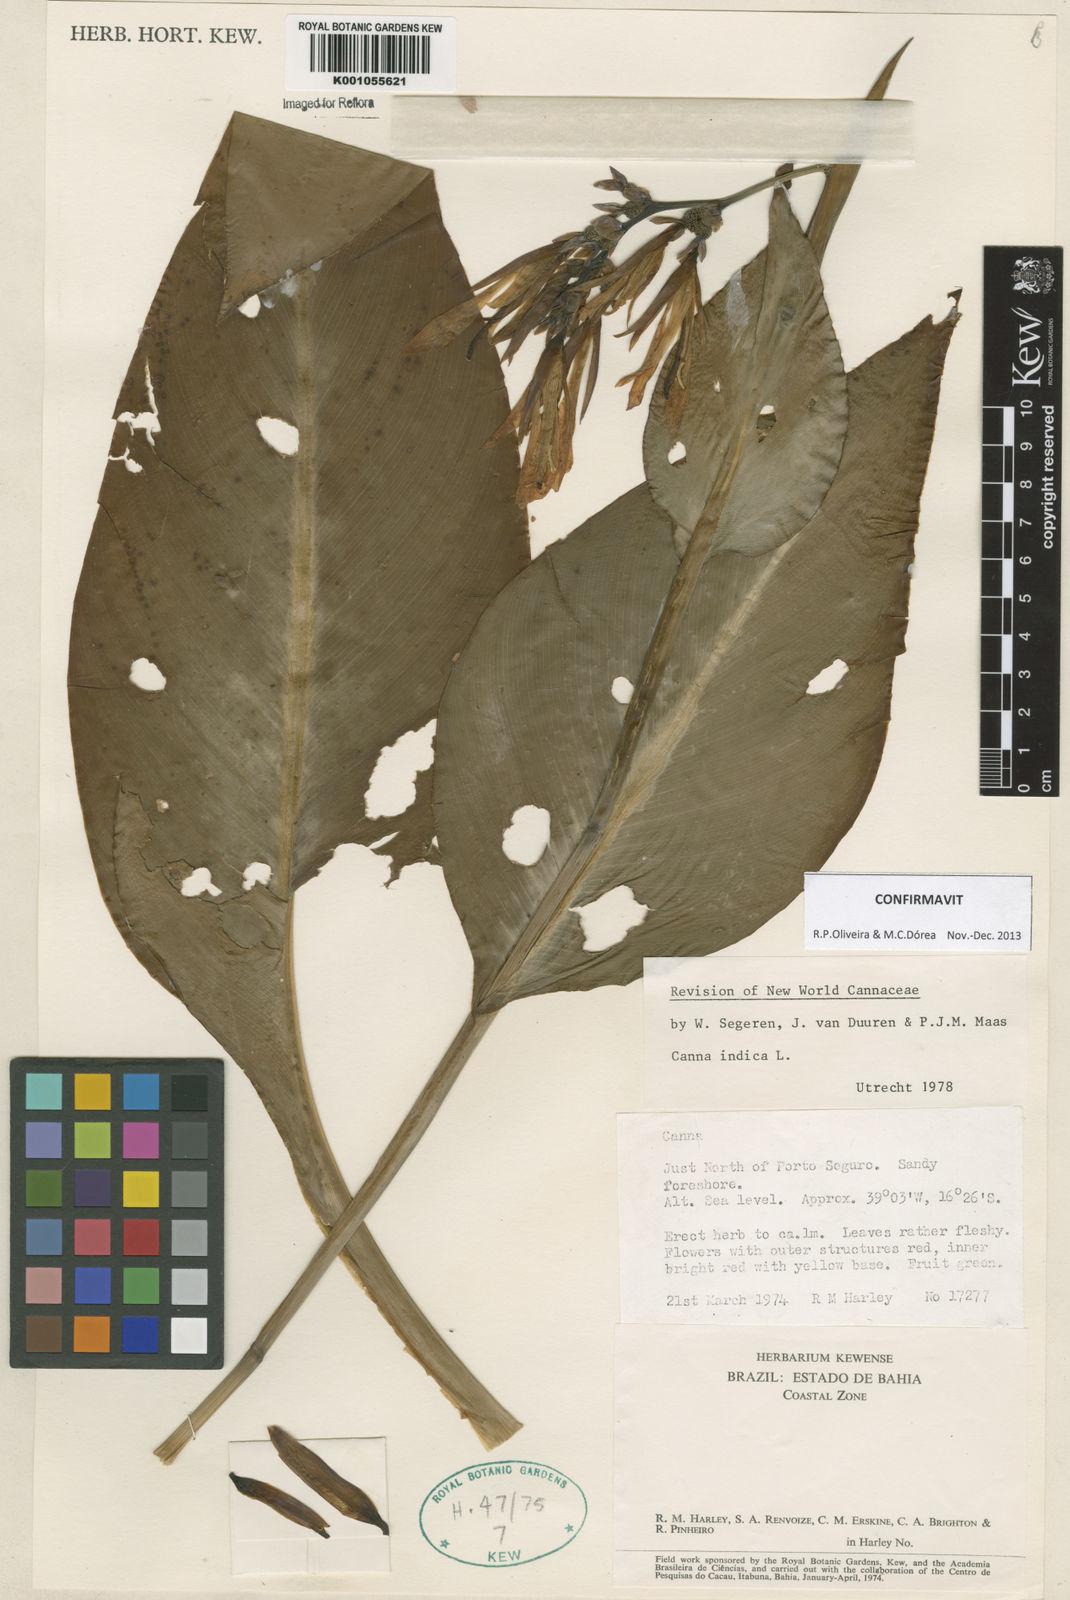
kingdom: Plantae
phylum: Tracheophyta
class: Liliopsida
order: Zingiberales
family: Cannaceae
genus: Canna
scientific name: Canna indica
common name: Indian shot
